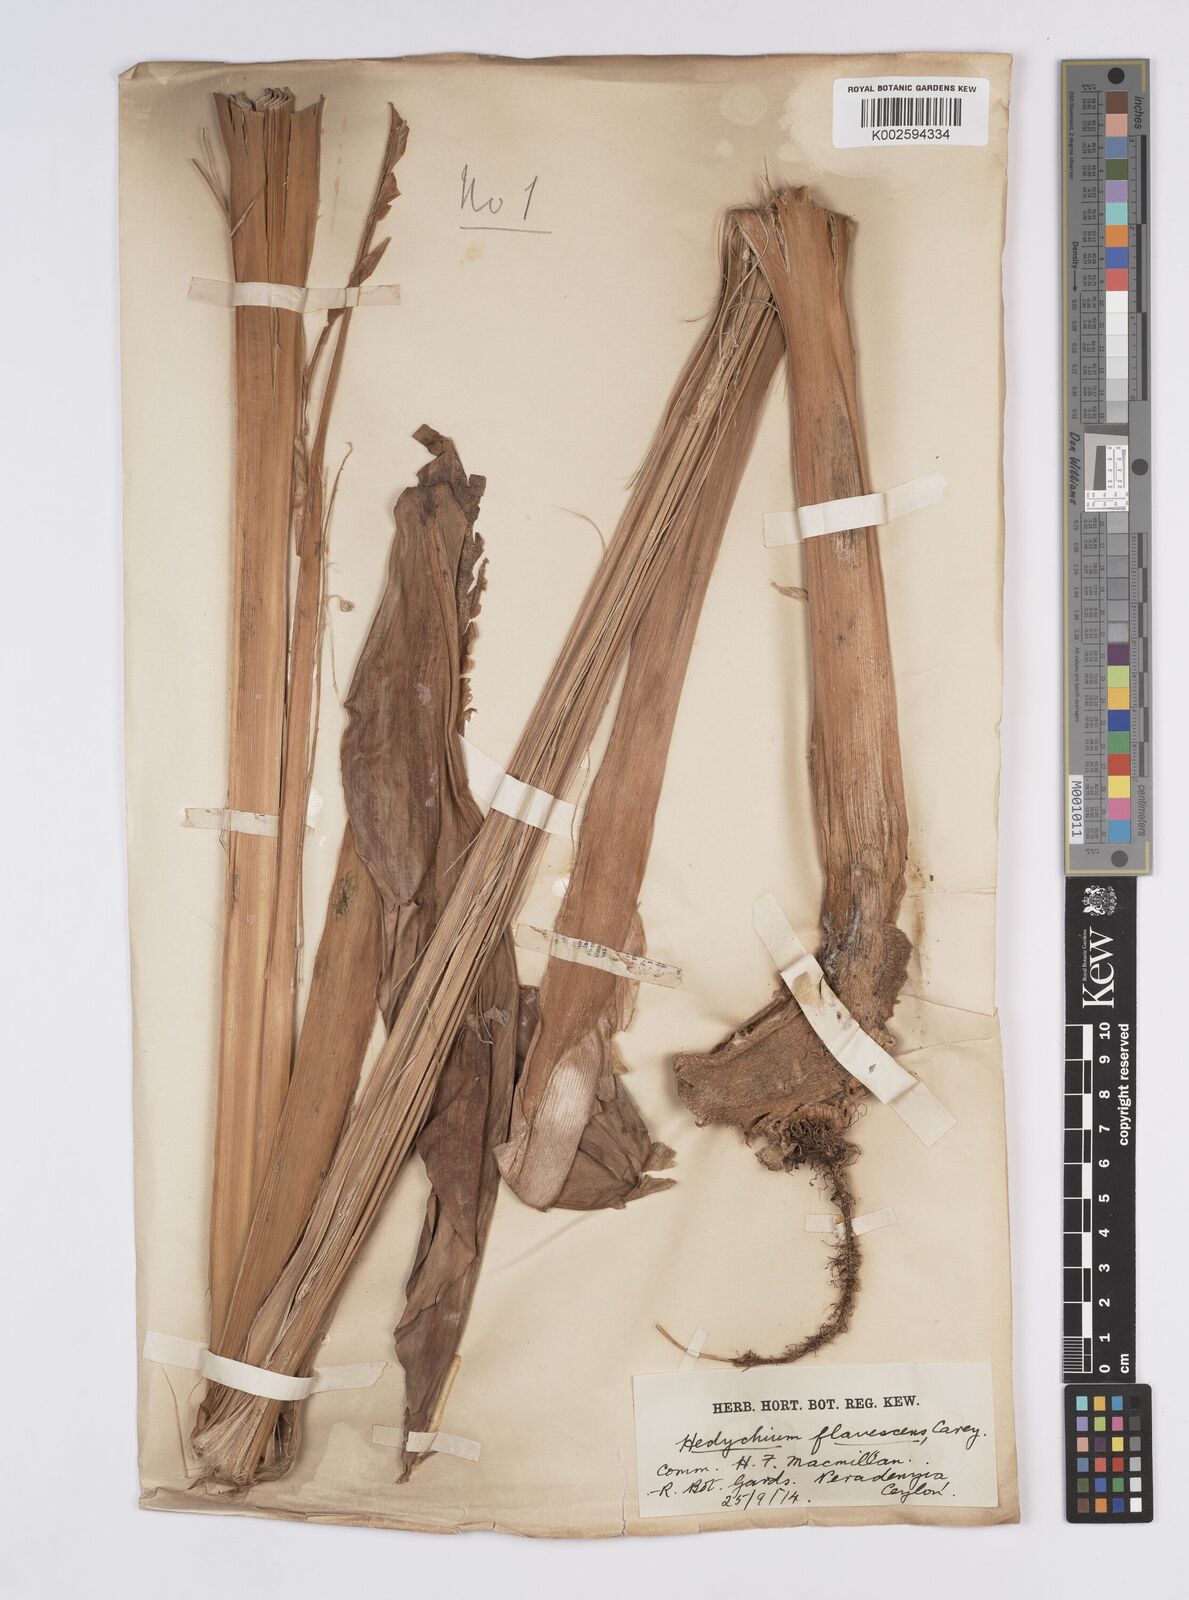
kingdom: Plantae
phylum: Tracheophyta
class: Liliopsida
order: Zingiberales
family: Zingiberaceae
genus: Hedychium
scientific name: Hedychium flavescens
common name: Yellow ginger
